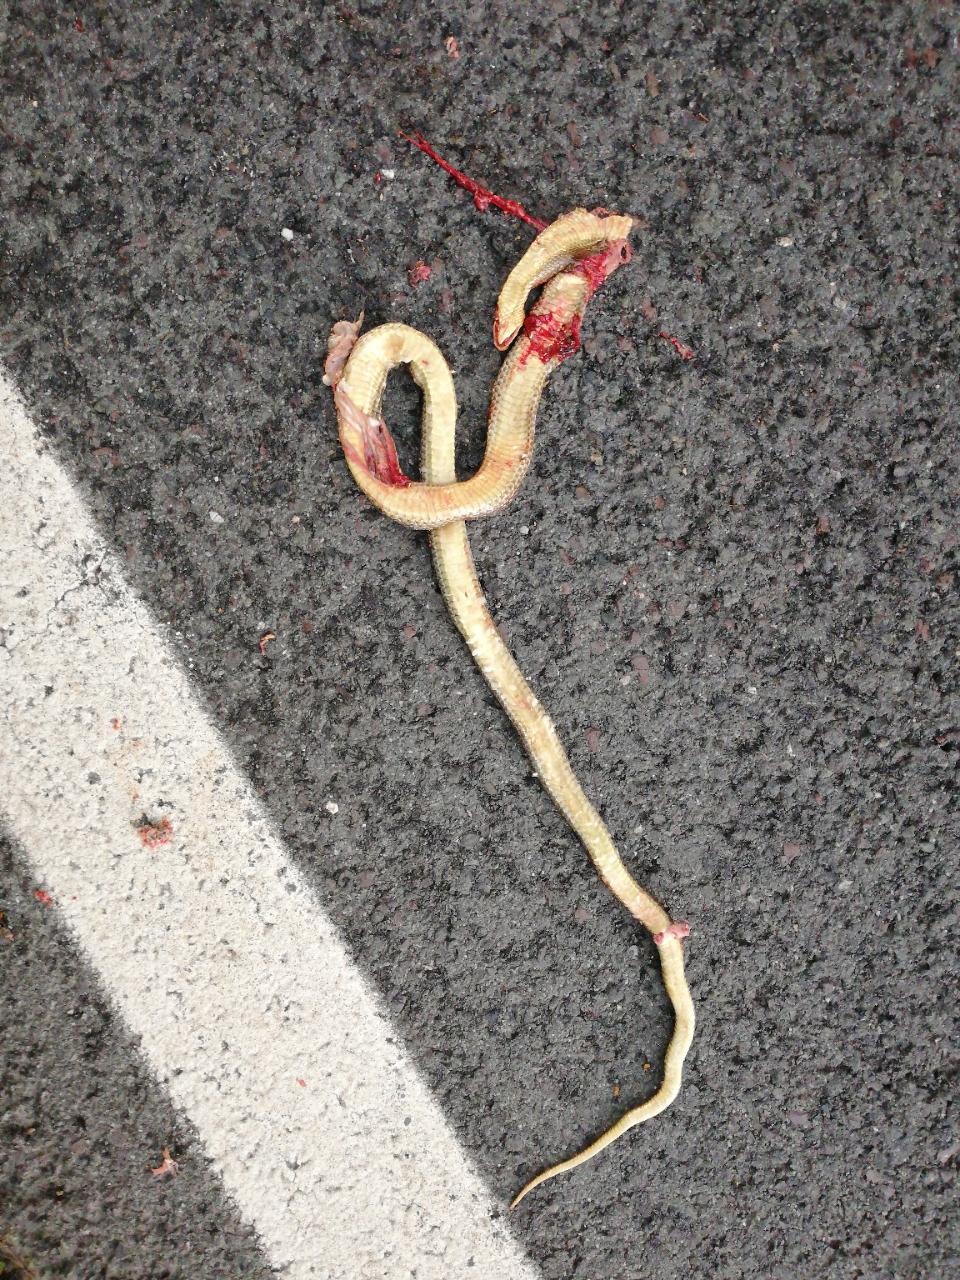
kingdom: Animalia
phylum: Chordata
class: Squamata
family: Colubridae
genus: Zamenis
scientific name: Zamenis longissimus
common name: Aesculapean snake
